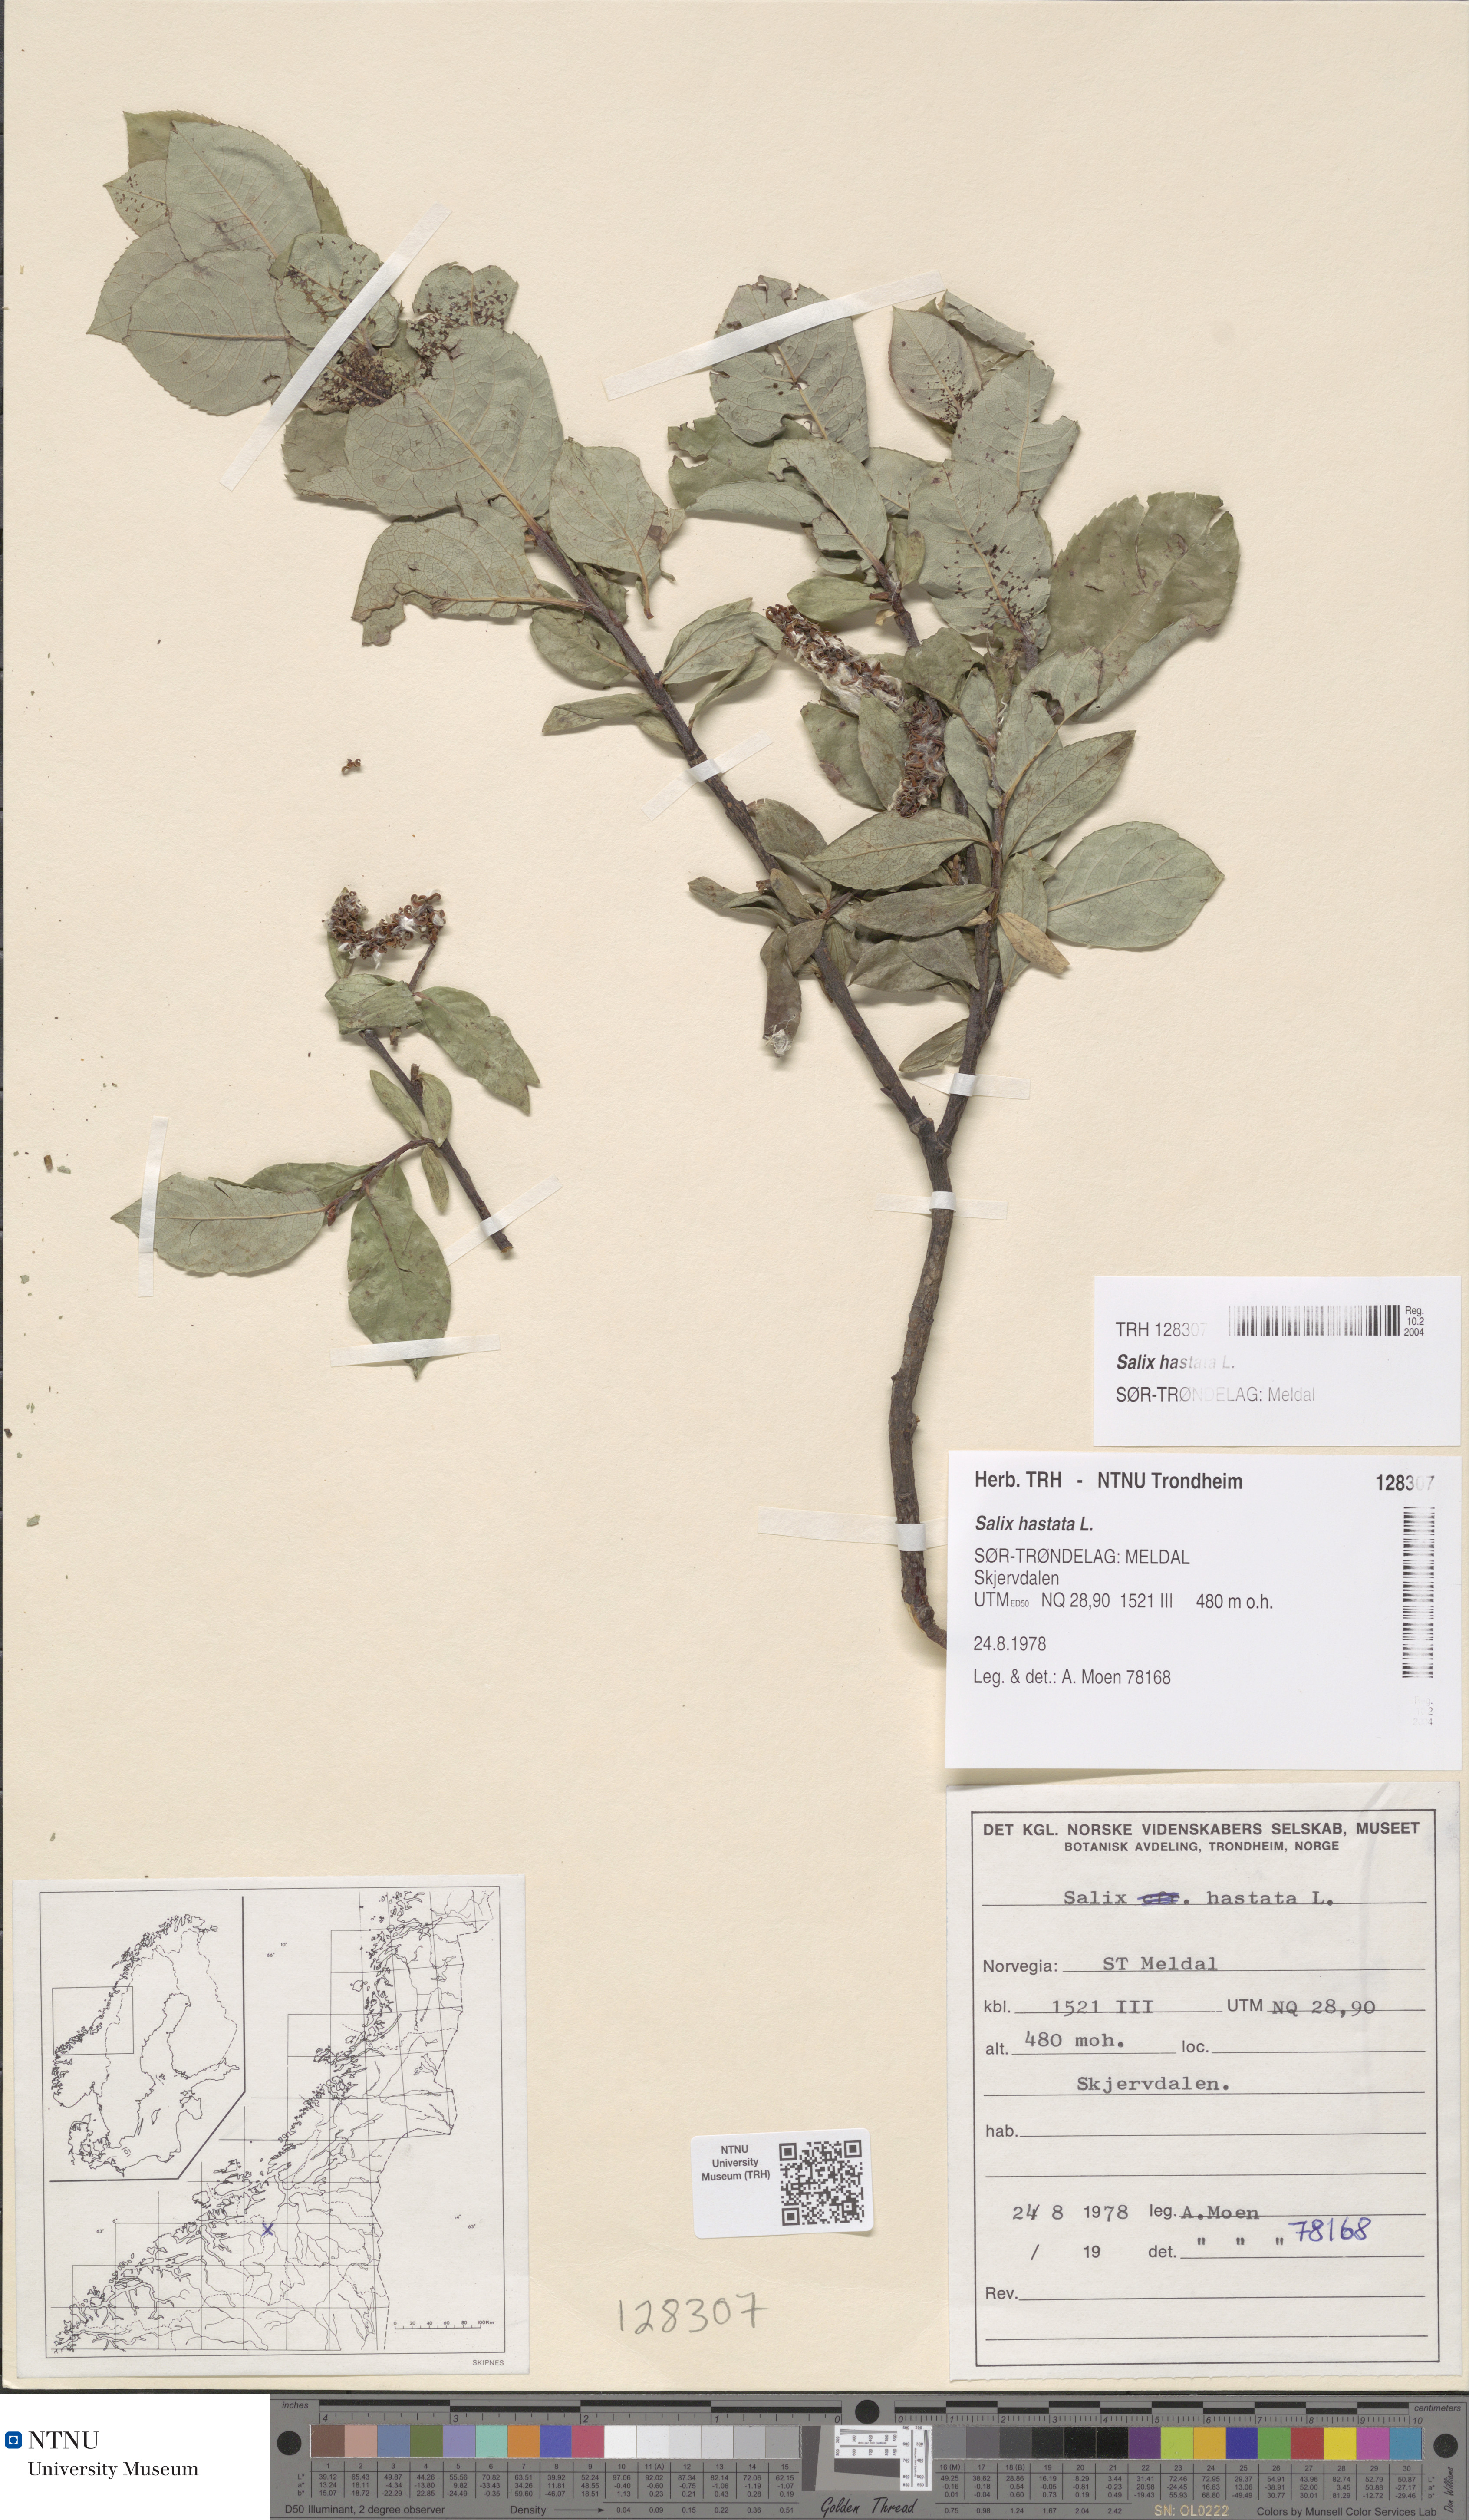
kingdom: Plantae
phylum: Tracheophyta
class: Magnoliopsida
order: Malpighiales
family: Salicaceae
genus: Salix
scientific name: Salix hastata
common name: Halberd willow
